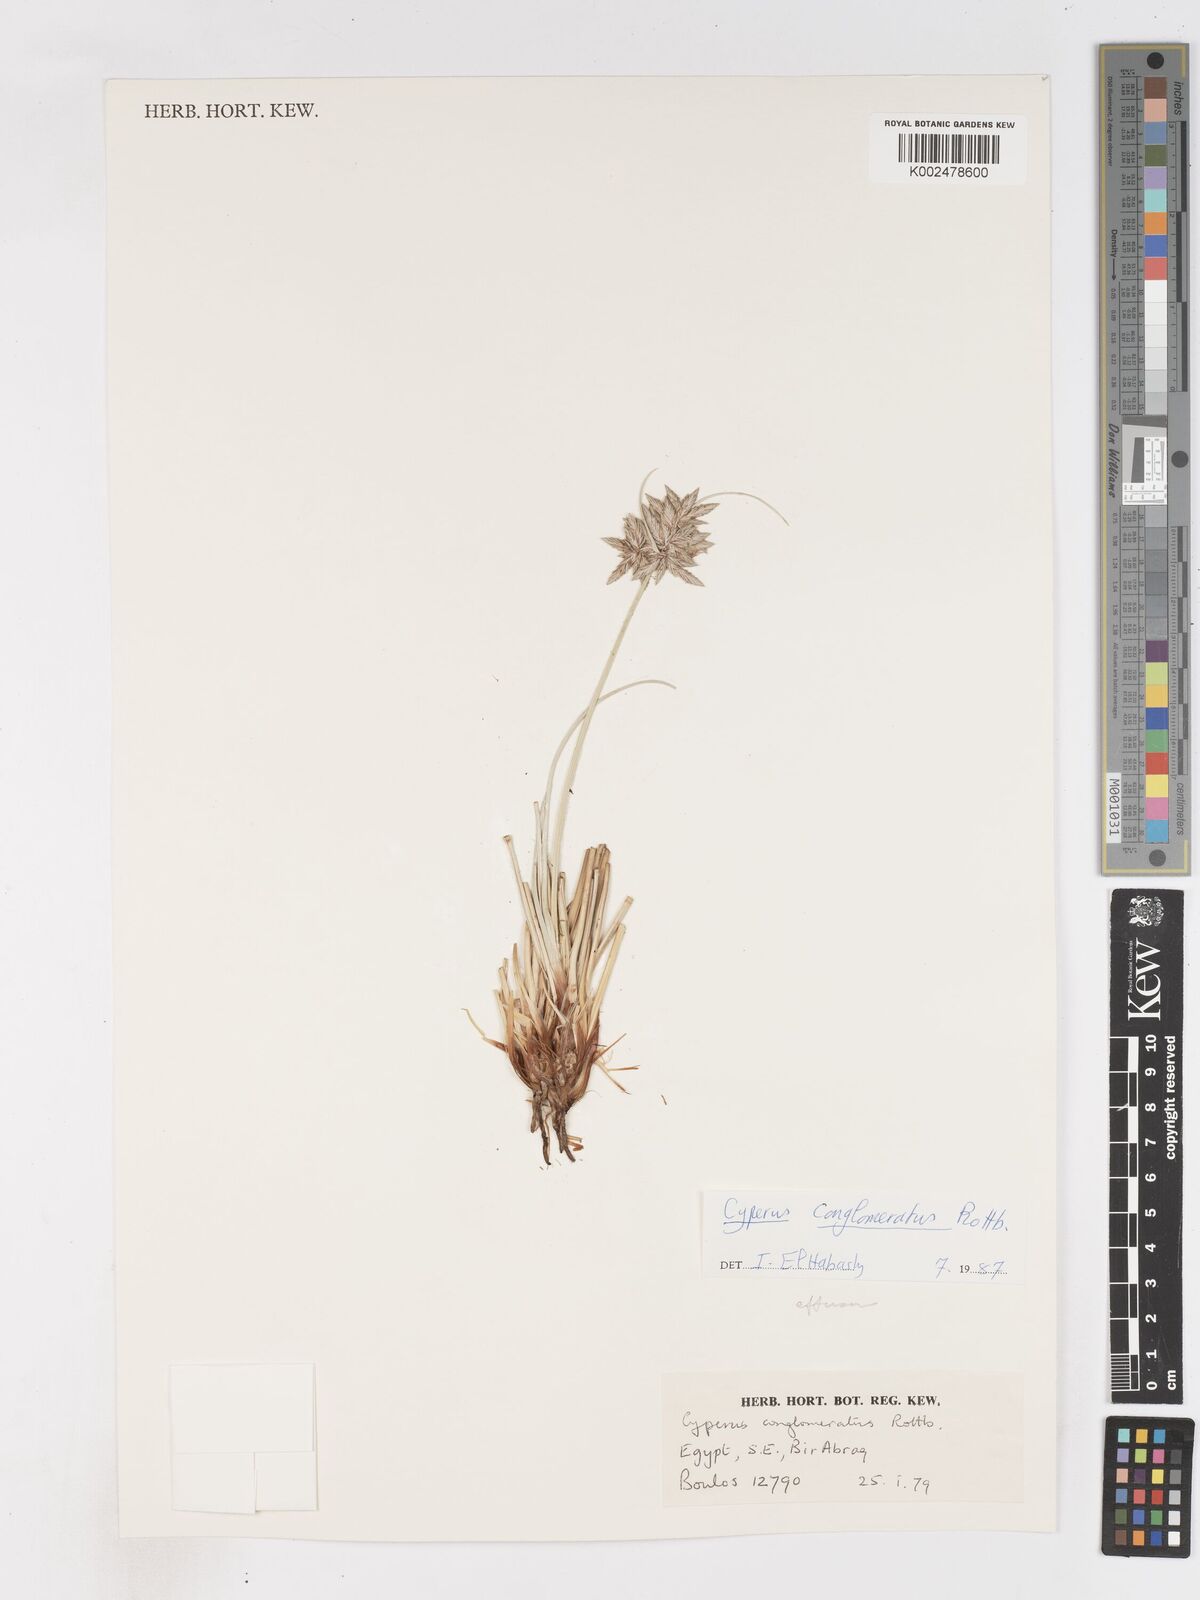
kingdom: Plantae
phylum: Tracheophyta
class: Liliopsida
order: Poales
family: Cyperaceae
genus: Cyperus
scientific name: Cyperus conglomeratus
